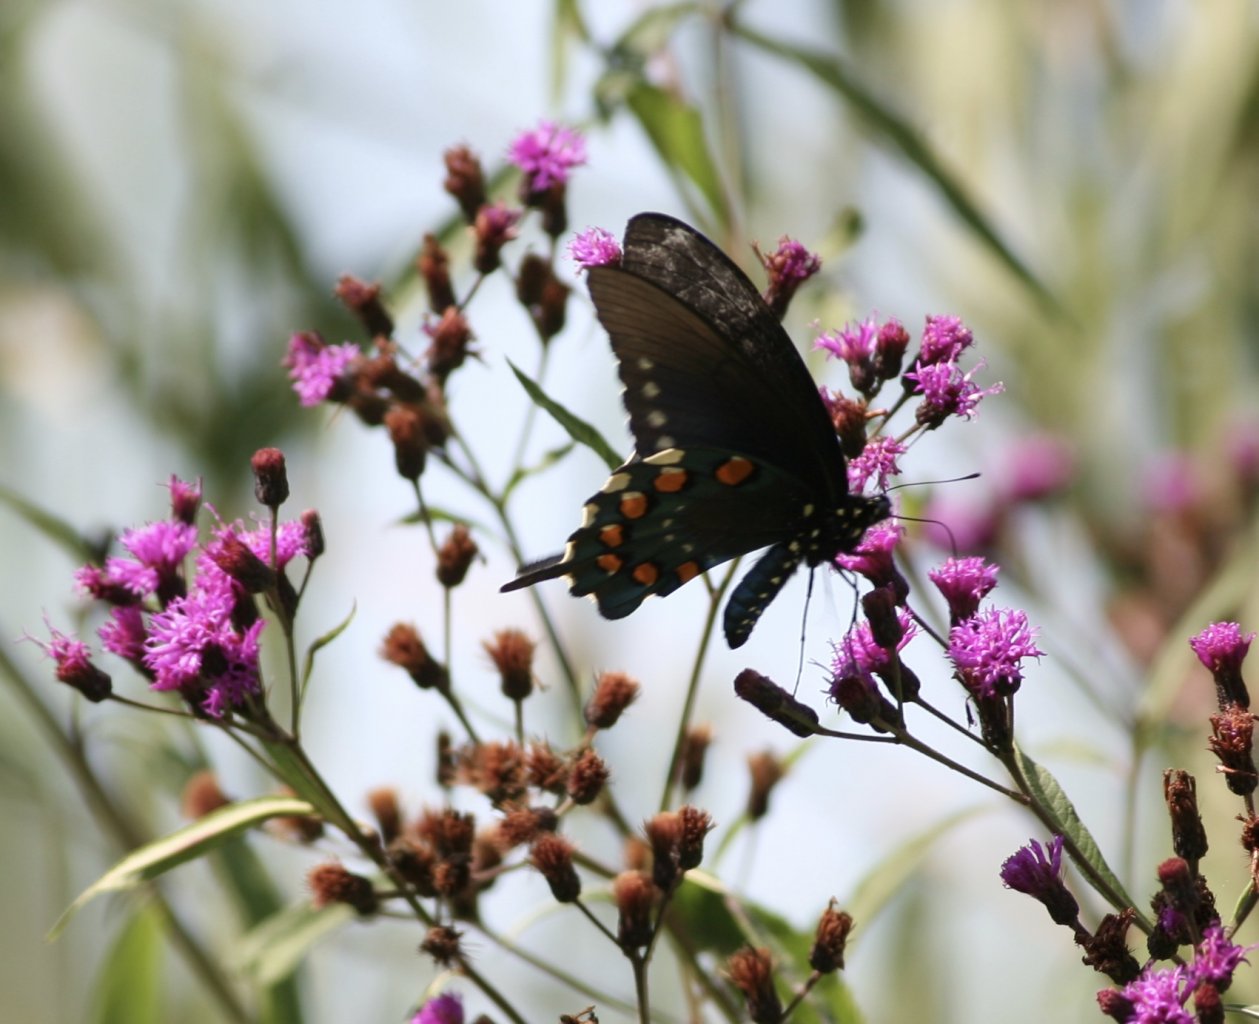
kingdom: Animalia
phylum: Arthropoda
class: Insecta
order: Lepidoptera
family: Papilionidae
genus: Battus
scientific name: Battus philenor
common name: Pipevine Swallowtail
